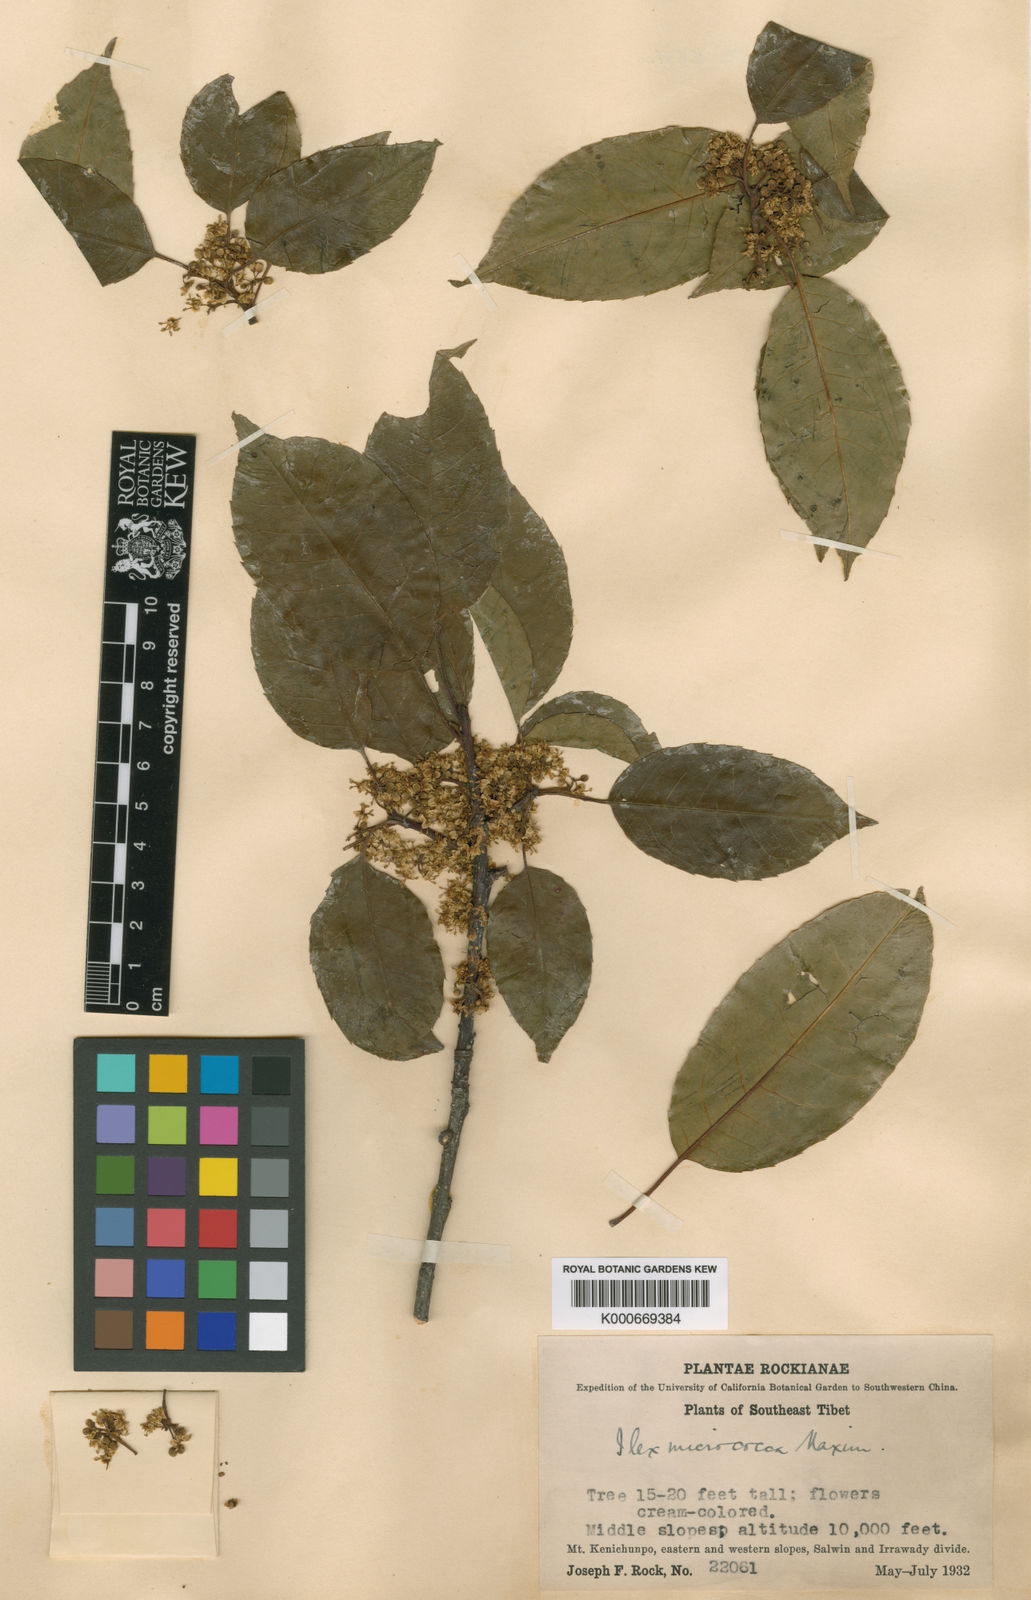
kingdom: Plantae
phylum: Tracheophyta
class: Magnoliopsida
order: Aquifoliales
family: Aquifoliaceae
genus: Ilex
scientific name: Ilex micrococca
